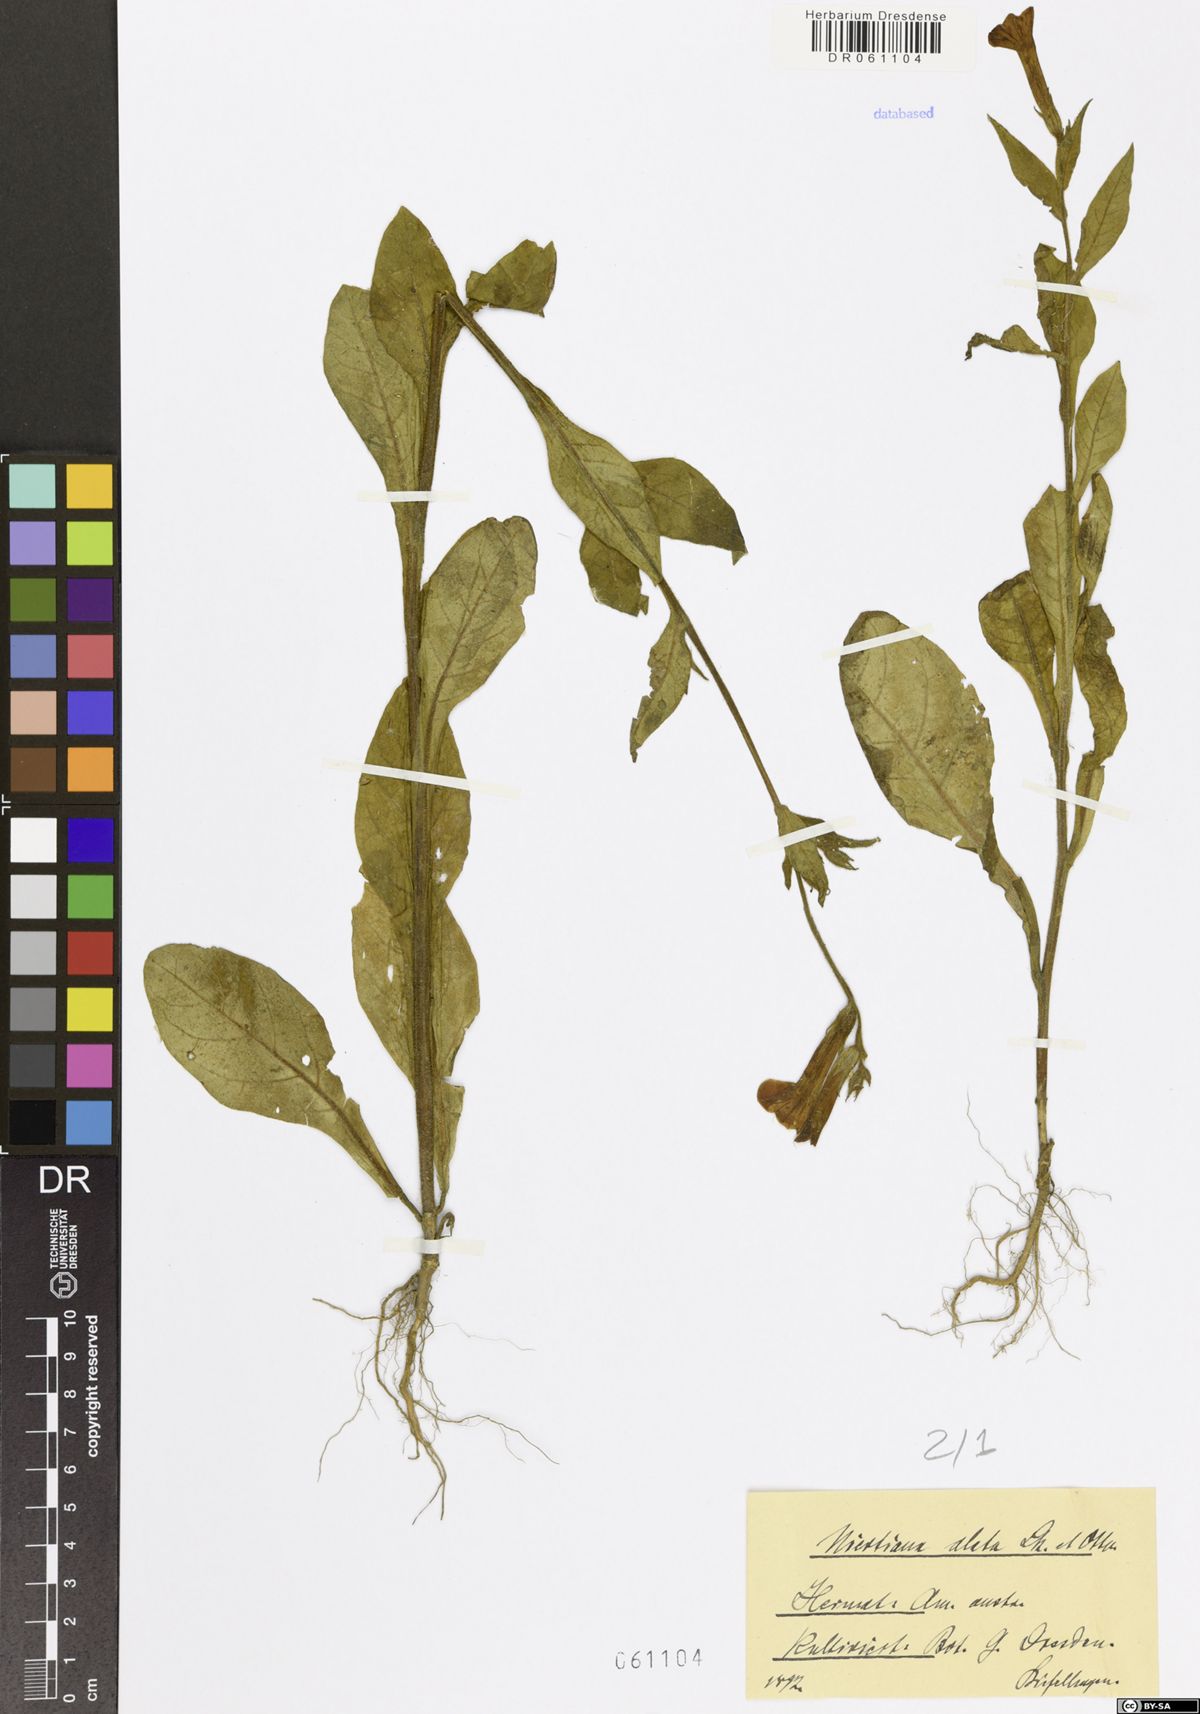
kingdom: Plantae
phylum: Tracheophyta
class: Magnoliopsida
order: Solanales
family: Solanaceae
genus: Nicotiana
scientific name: Nicotiana alata
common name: Jasmine tobacco
